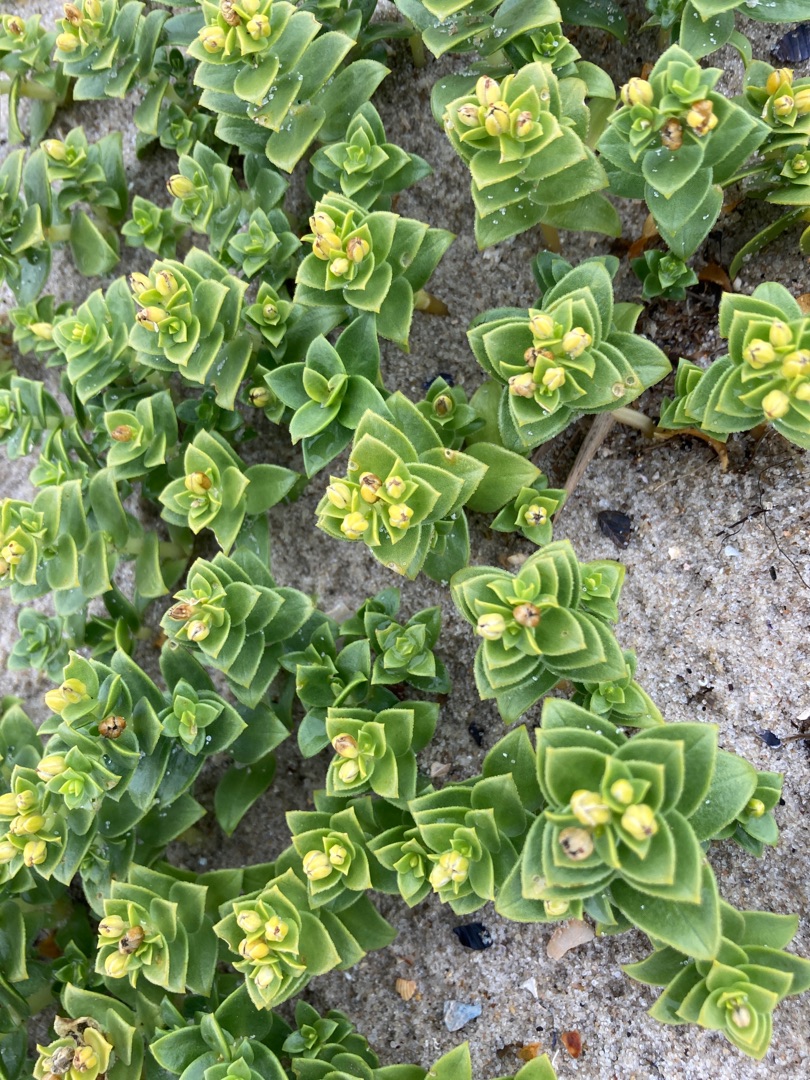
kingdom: Plantae
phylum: Tracheophyta
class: Magnoliopsida
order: Caryophyllales
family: Caryophyllaceae
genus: Honckenya
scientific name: Honckenya peploides
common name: Strandarve
